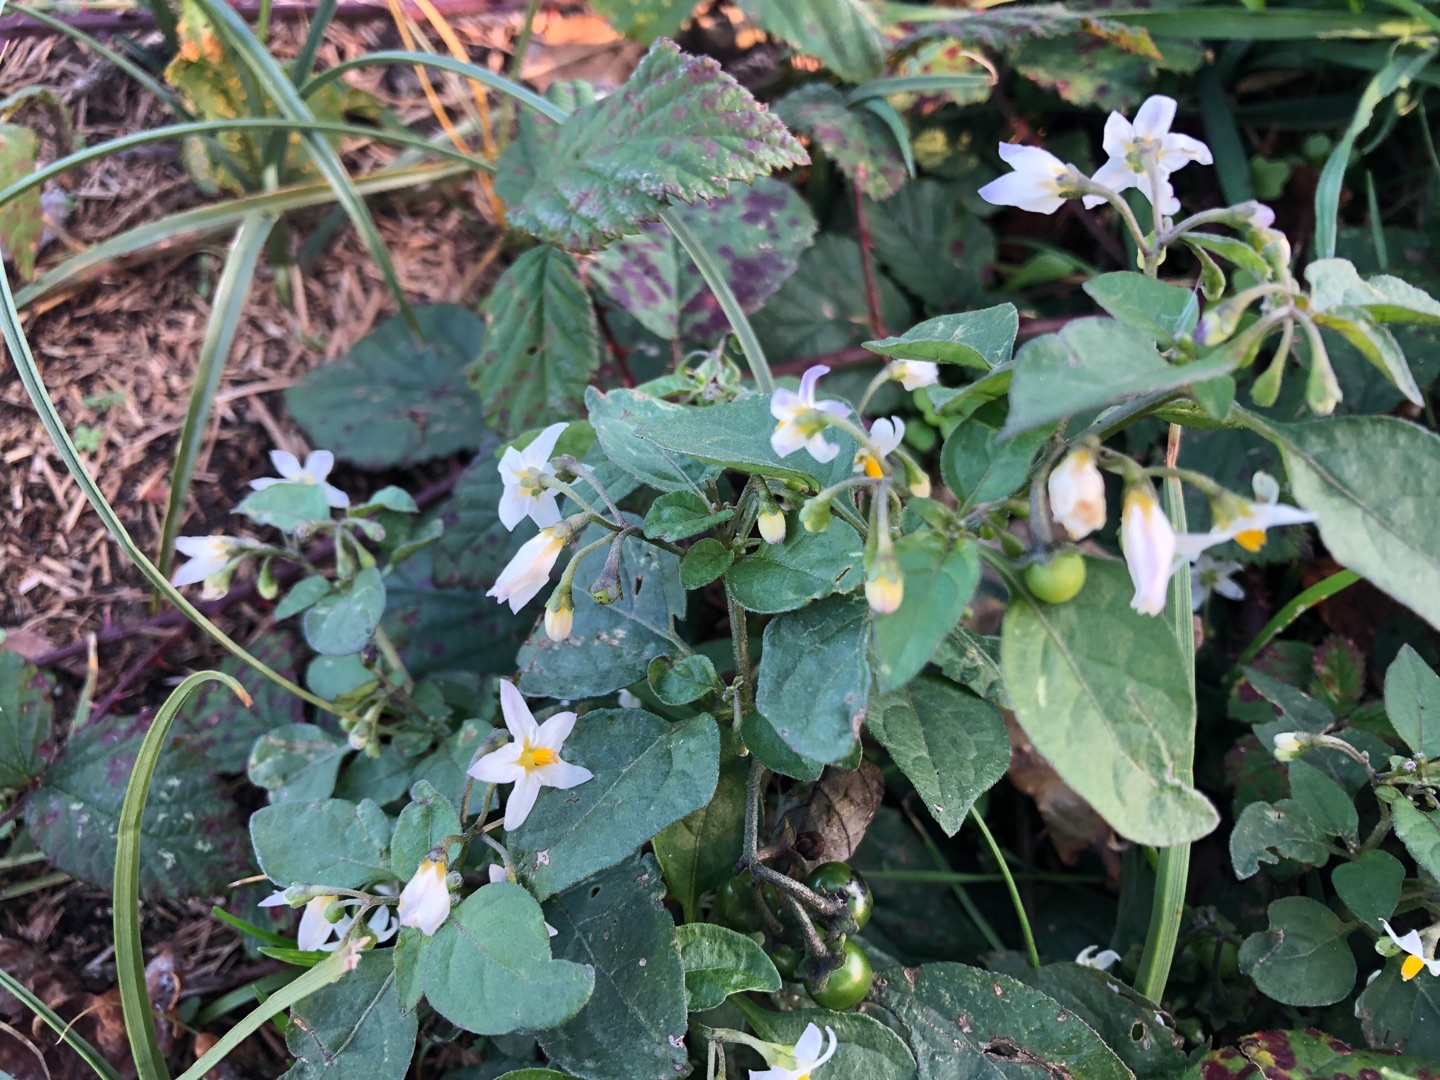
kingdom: Plantae
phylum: Tracheophyta
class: Magnoliopsida
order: Solanales
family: Solanaceae
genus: Solanum
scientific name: Solanum nigrum
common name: Sort natskygge
